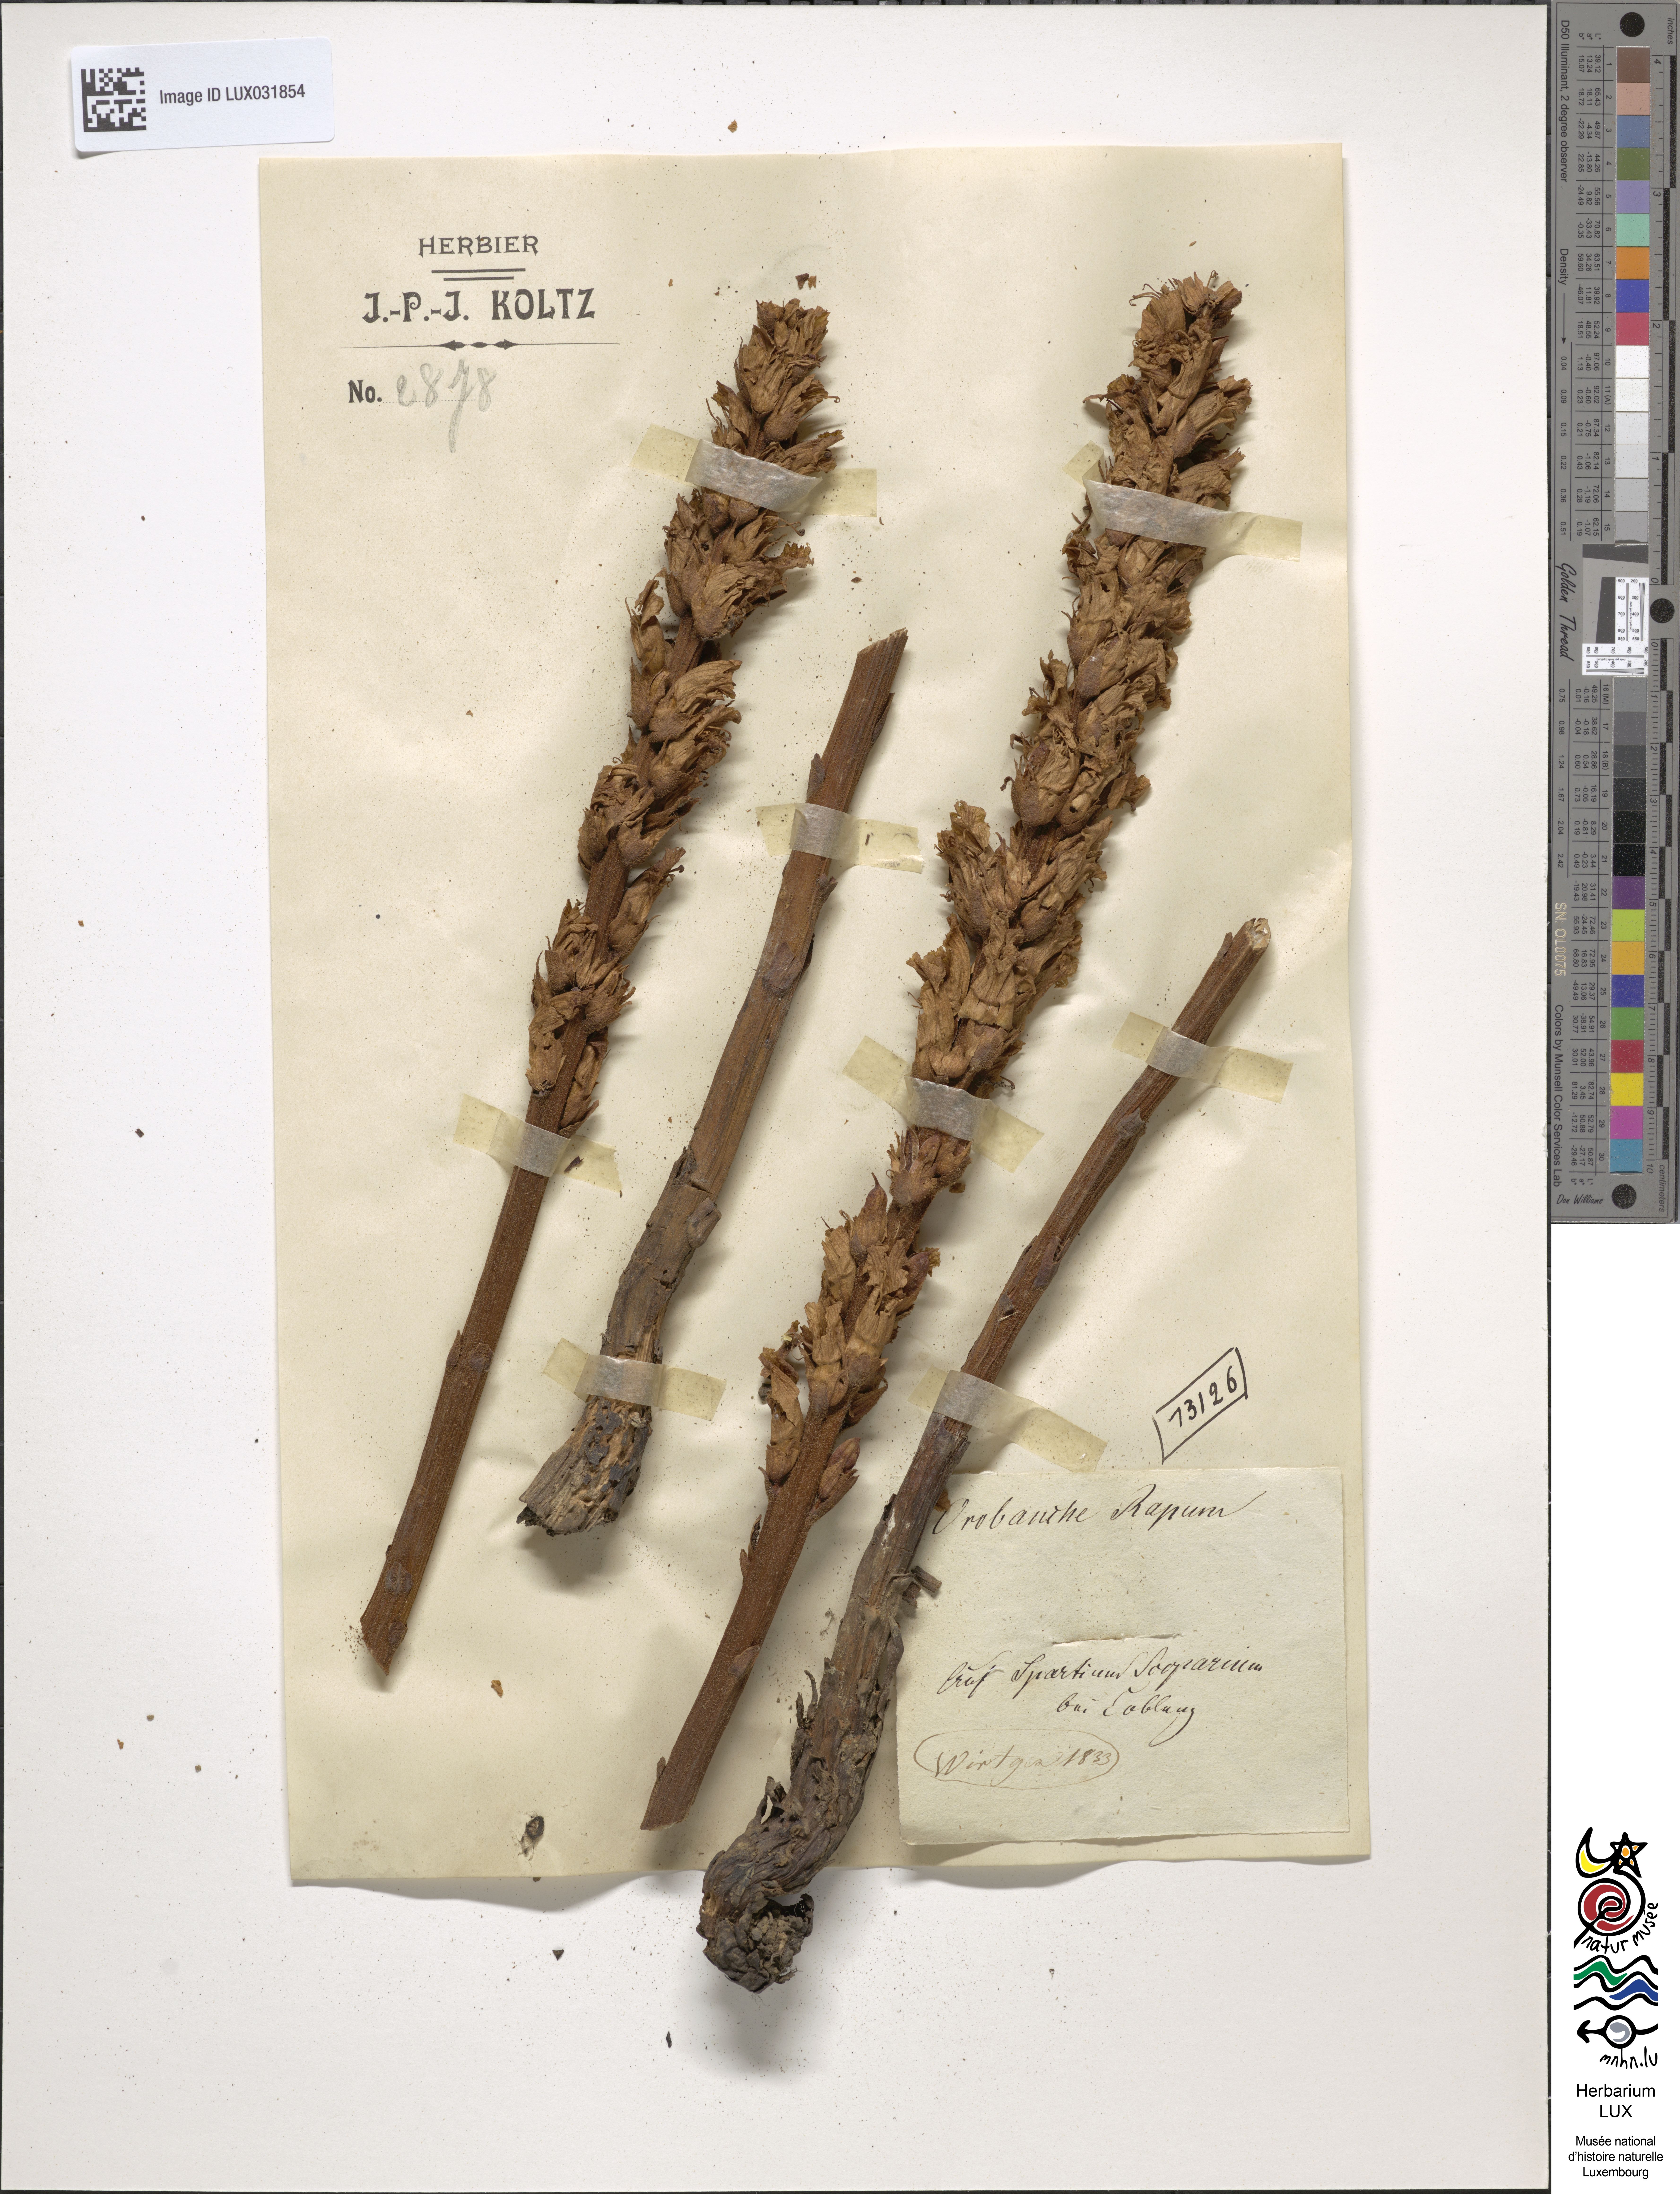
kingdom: Plantae
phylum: Tracheophyta
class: Magnoliopsida
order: Lamiales
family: Orobanchaceae
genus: Orobanche
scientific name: Orobanche rapum-genistae
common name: Greater broomrape
